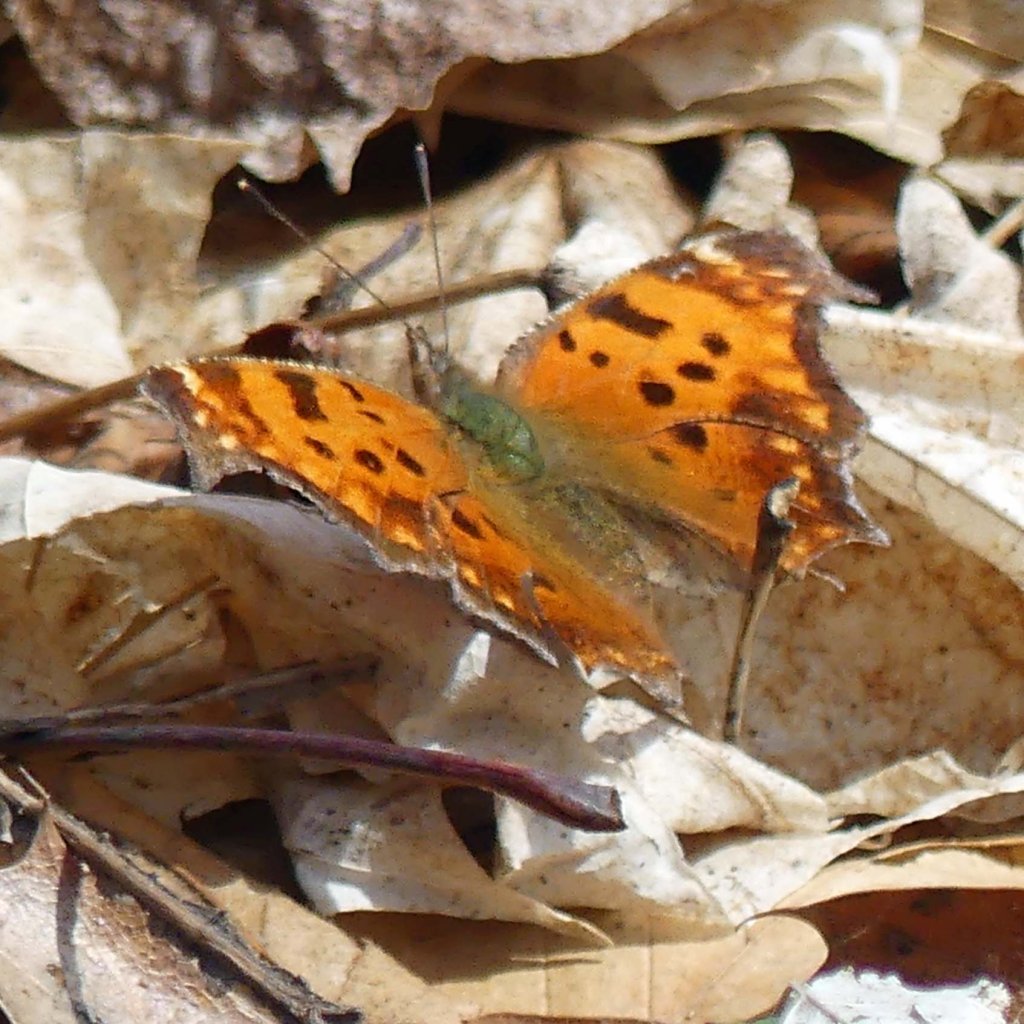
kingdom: Animalia
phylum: Arthropoda
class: Insecta
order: Lepidoptera
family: Nymphalidae
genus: Polygonia
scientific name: Polygonia comma
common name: Eastern Comma
